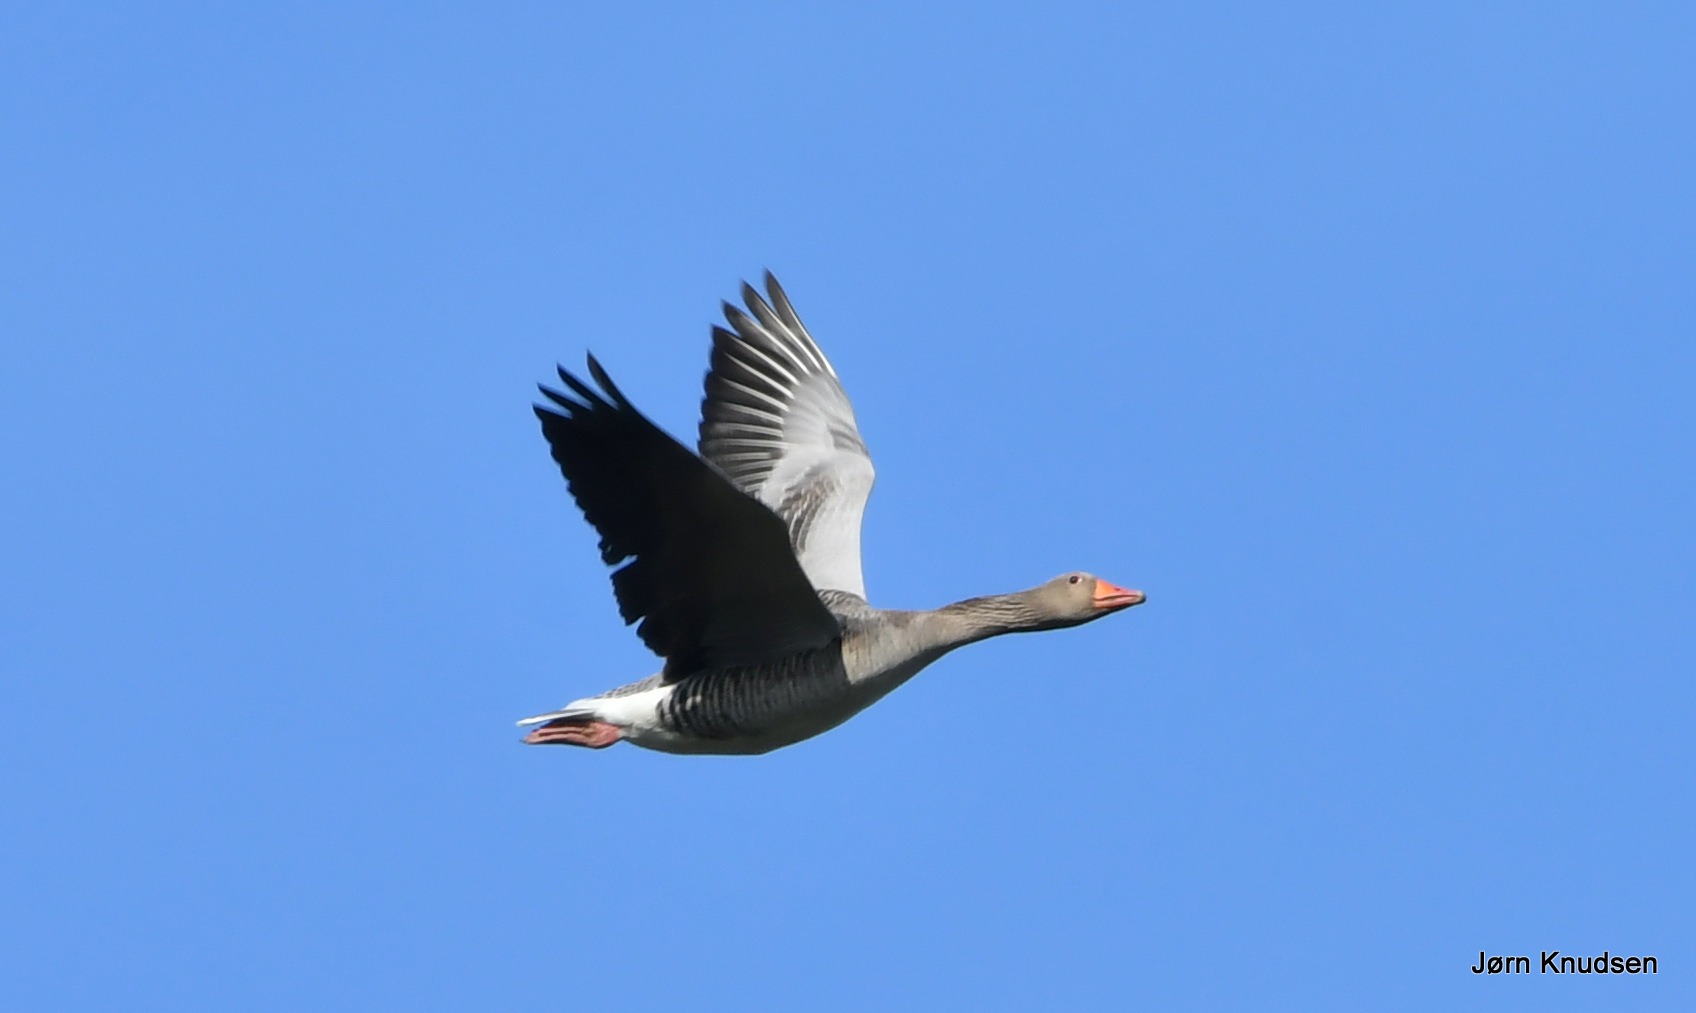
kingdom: Animalia
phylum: Chordata
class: Aves
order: Anseriformes
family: Anatidae
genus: Anser
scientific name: Anser anser
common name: Grågås
